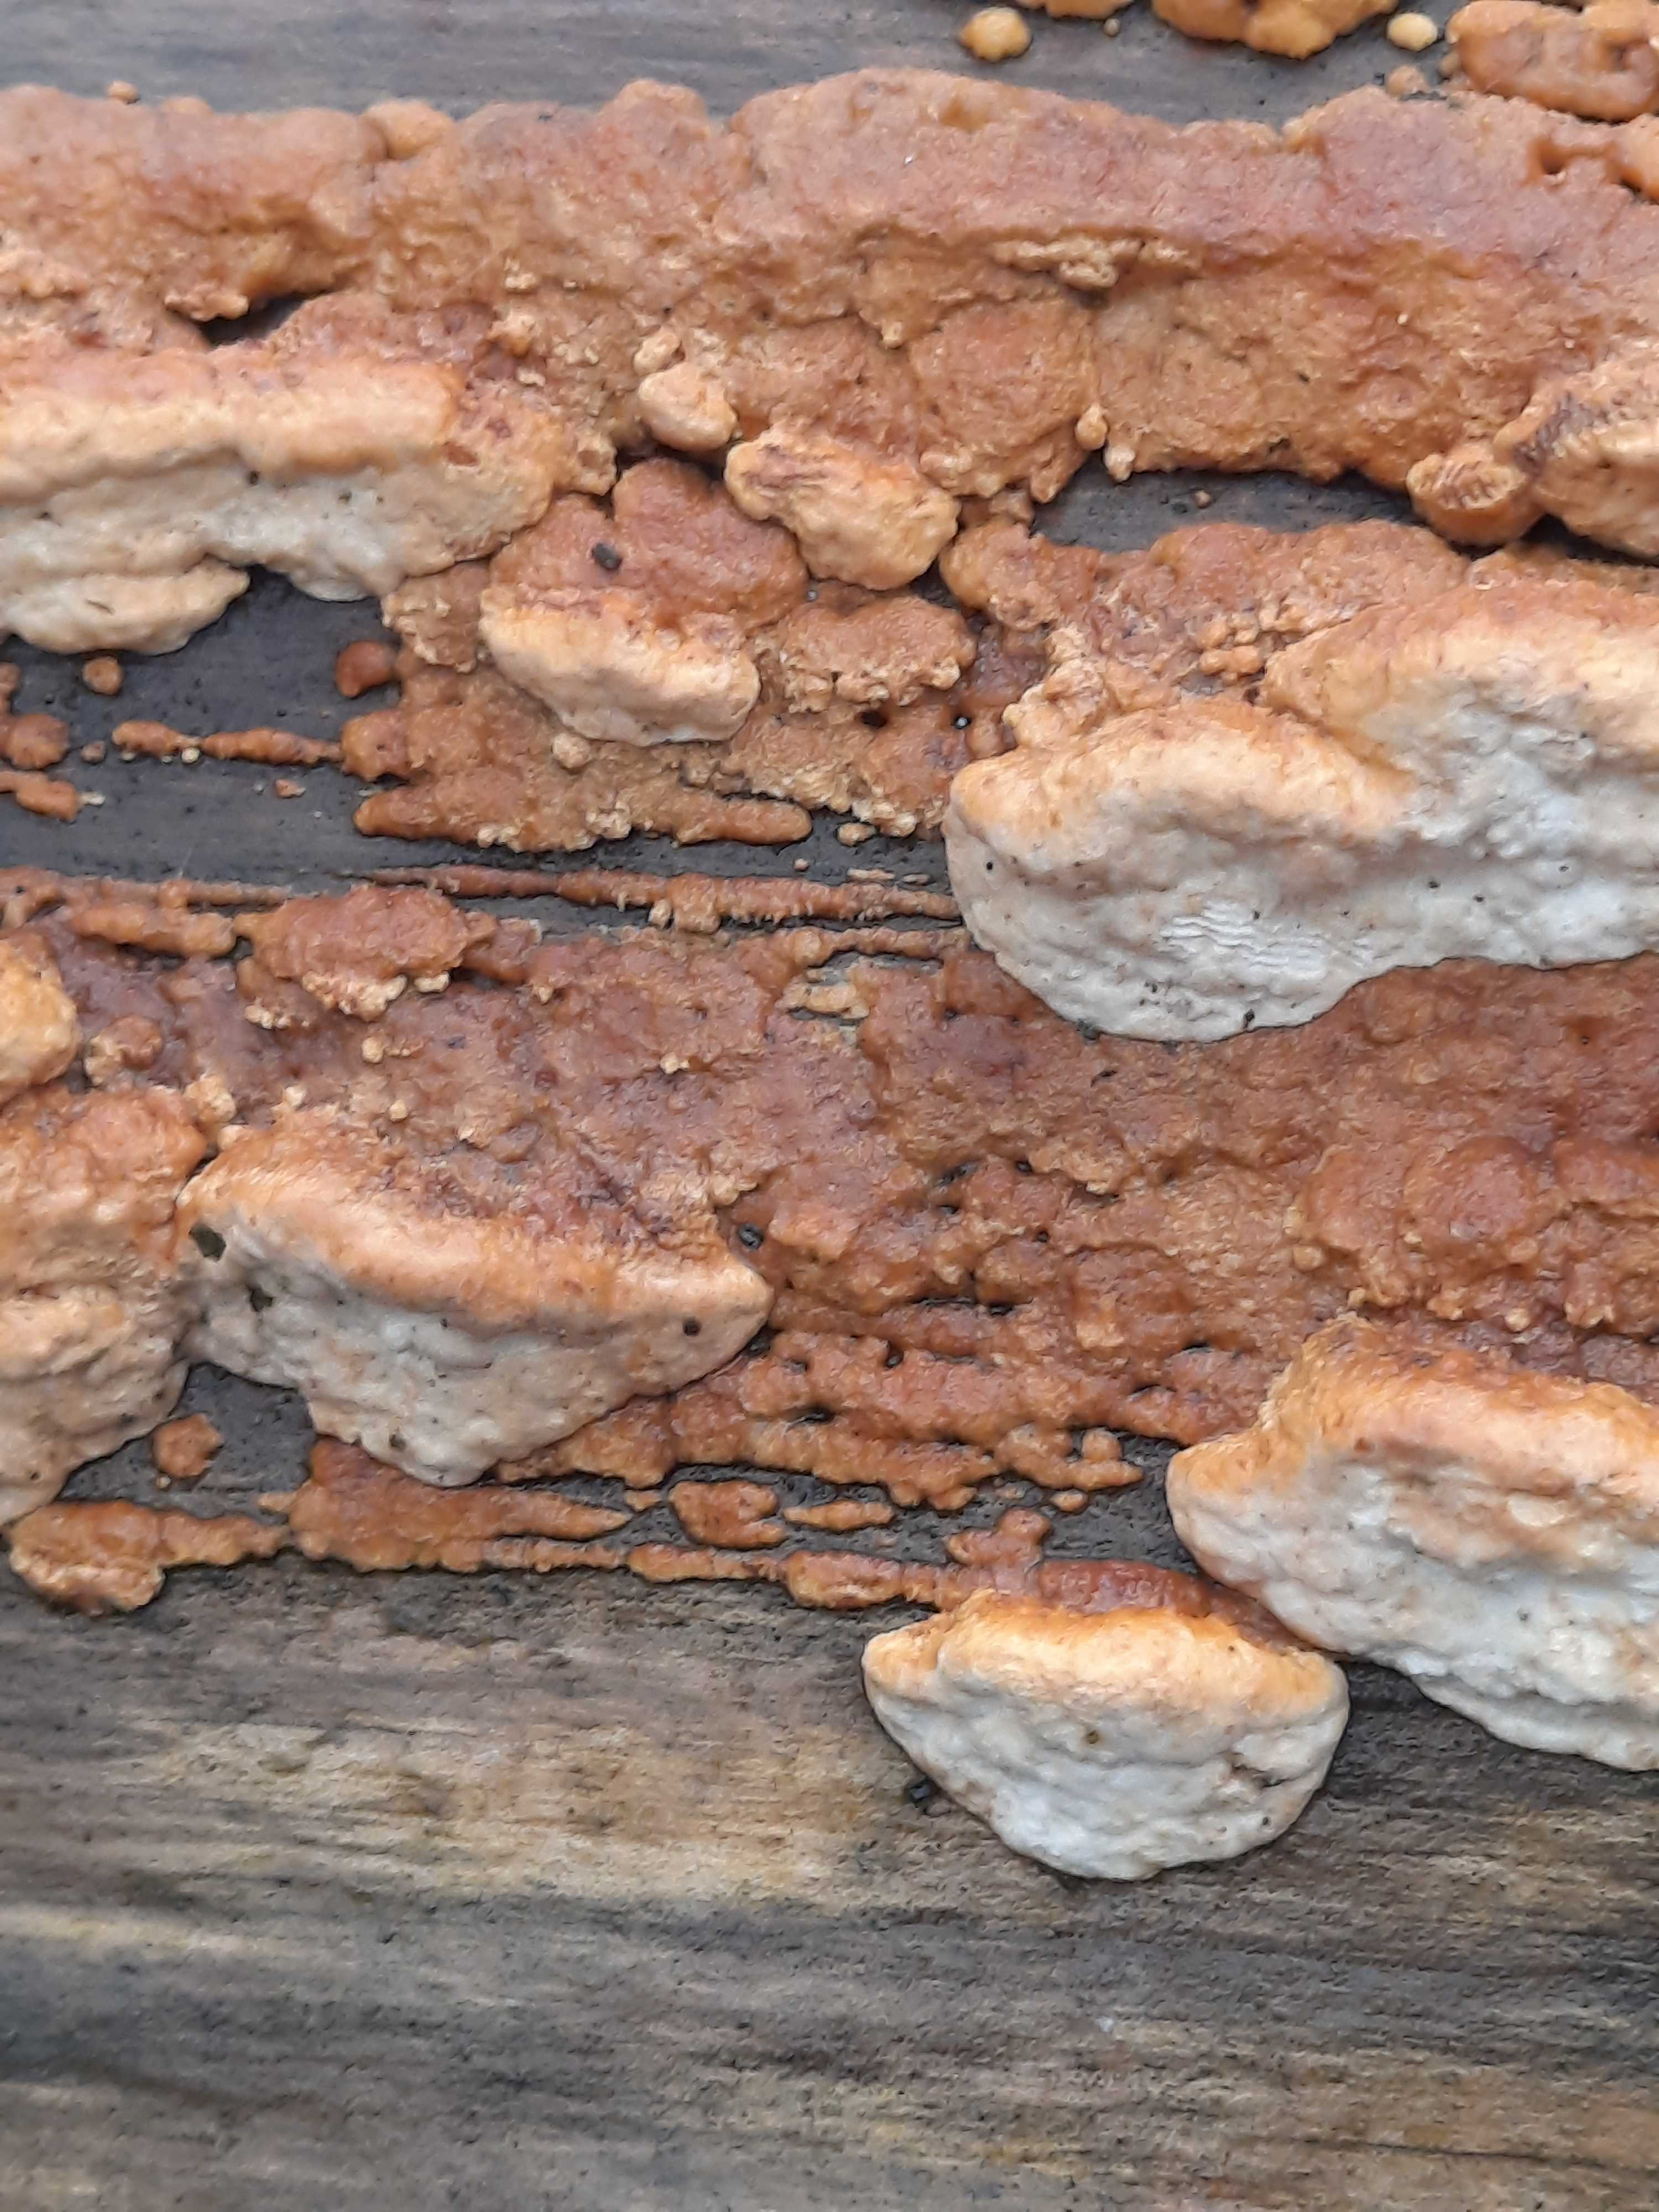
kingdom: Fungi
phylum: Basidiomycota
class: Agaricomycetes
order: Polyporales
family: Fomitopsidaceae
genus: Neoantrodia
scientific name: Neoantrodia serialis
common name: række-sejporesvamp
